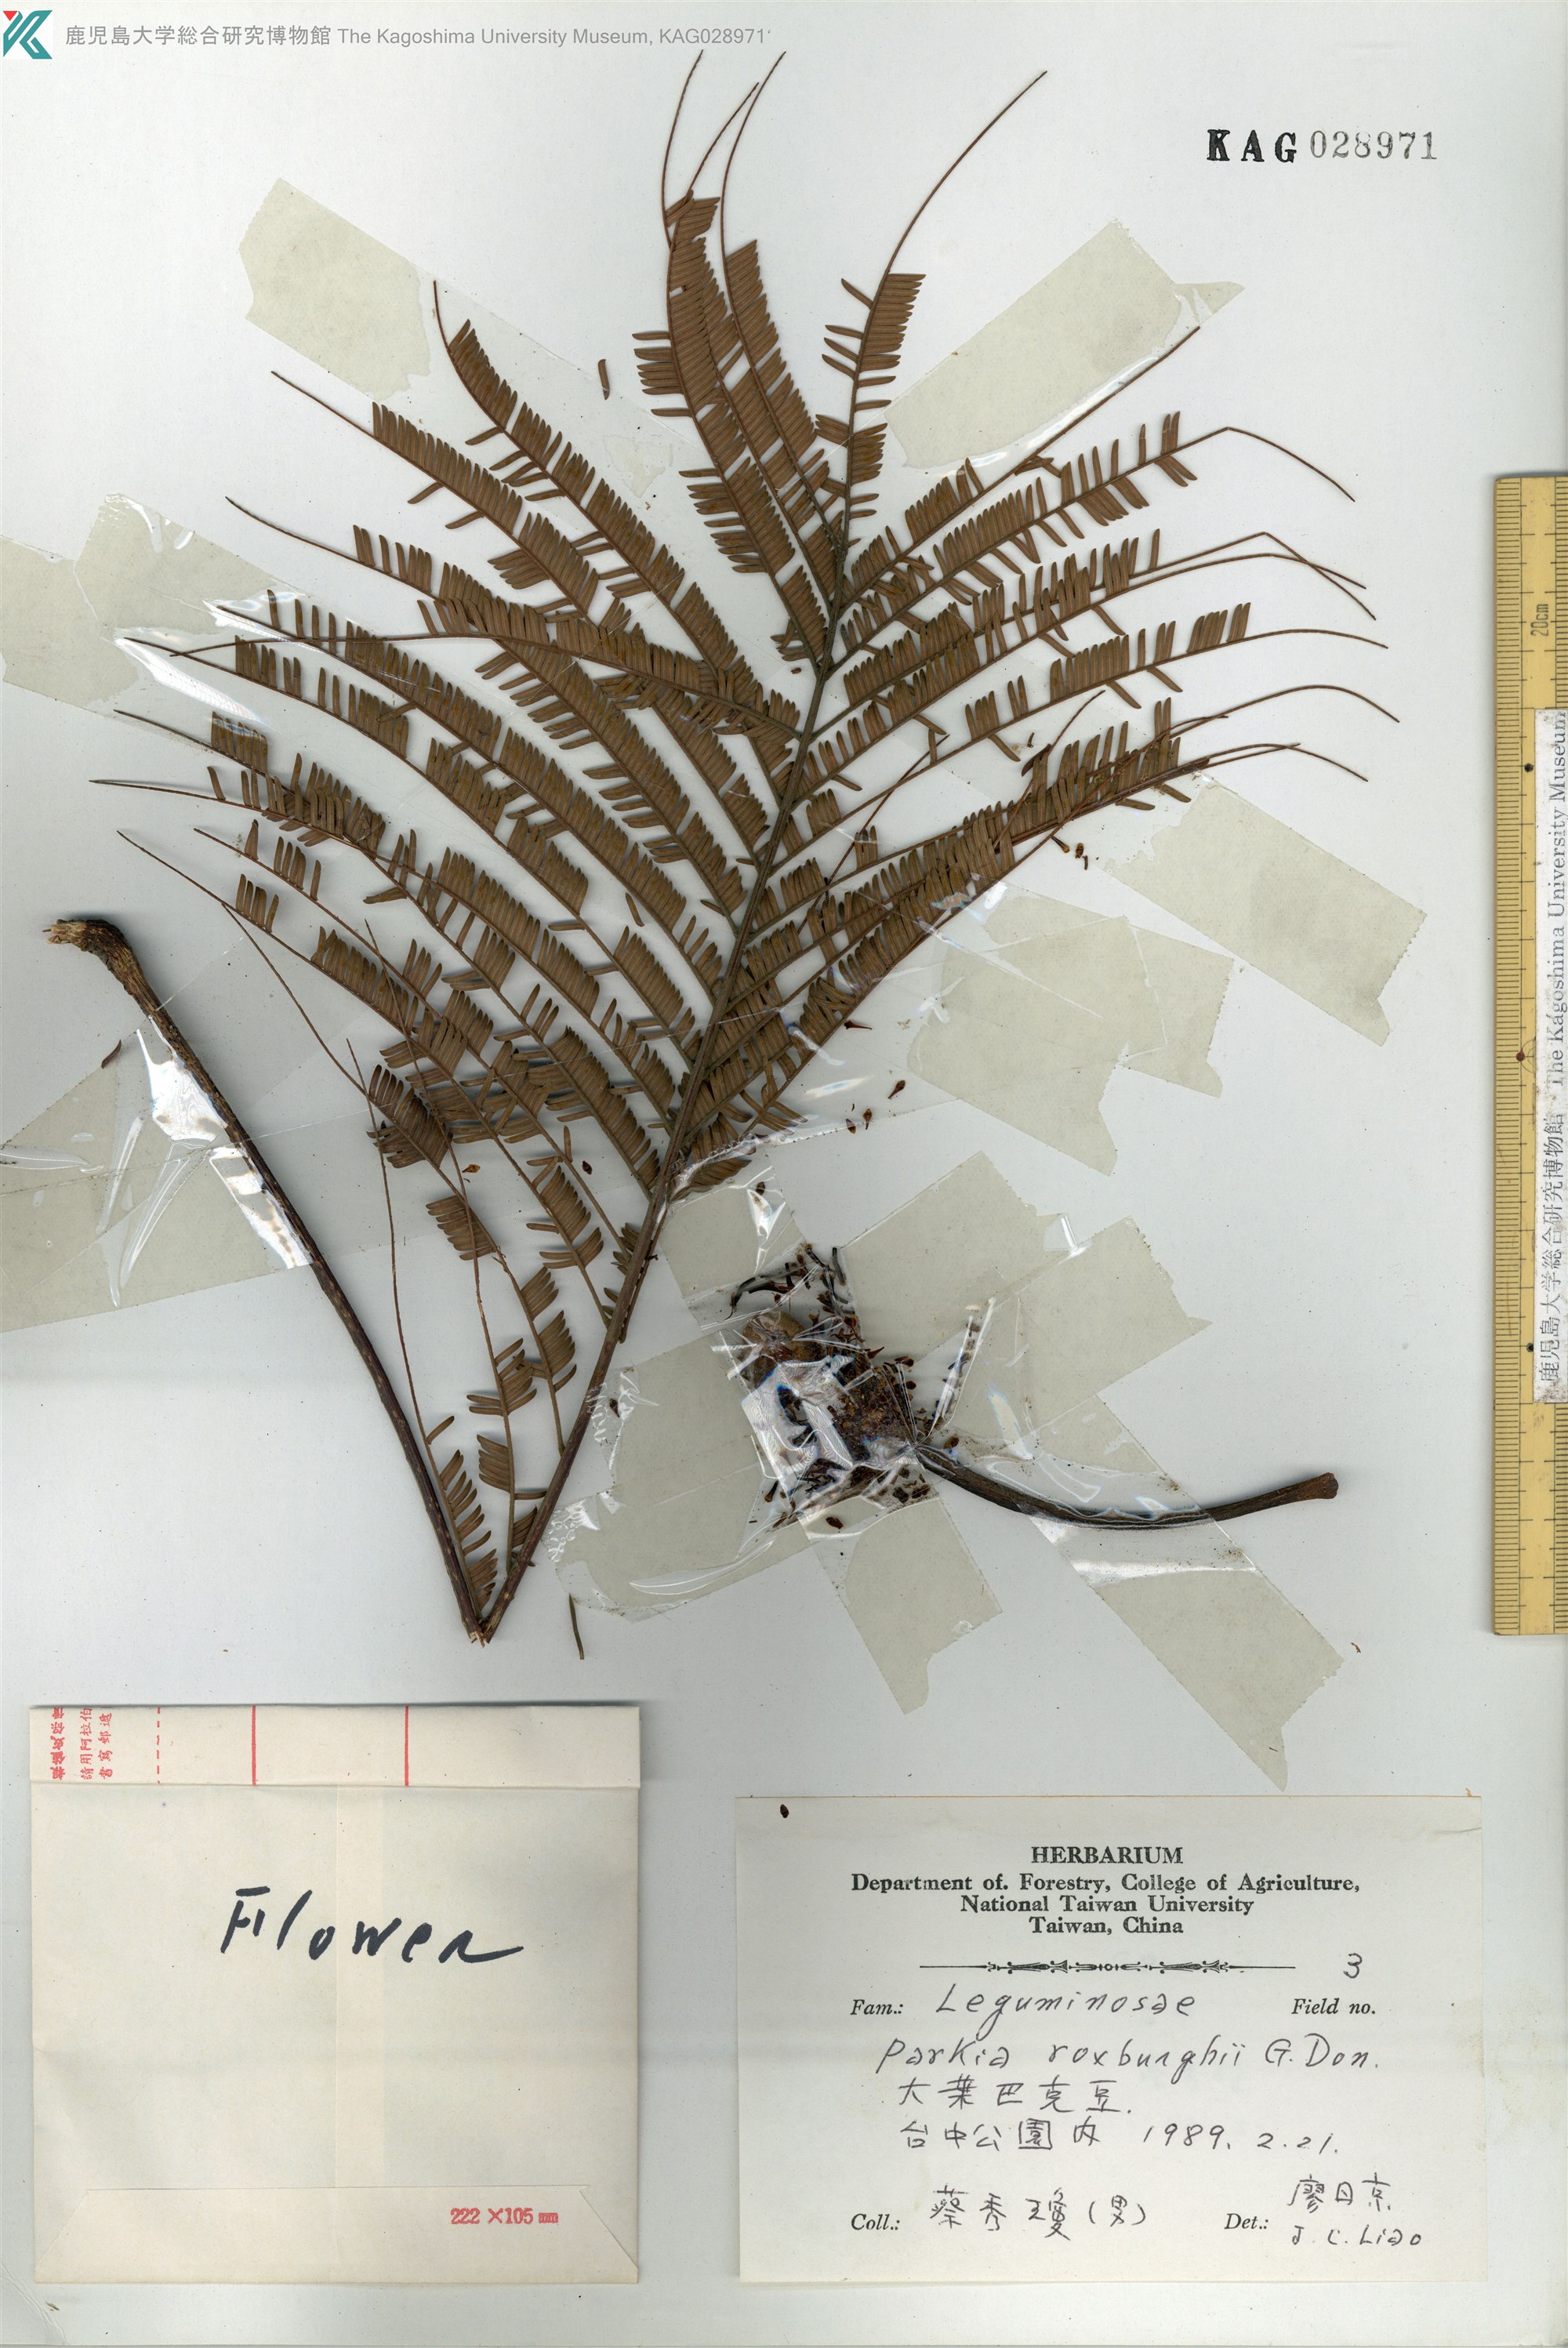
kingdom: Plantae
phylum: Tracheophyta
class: Magnoliopsida
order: Fabales
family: Fabaceae
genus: Parkia
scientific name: Parkia timoriana
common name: Legume
